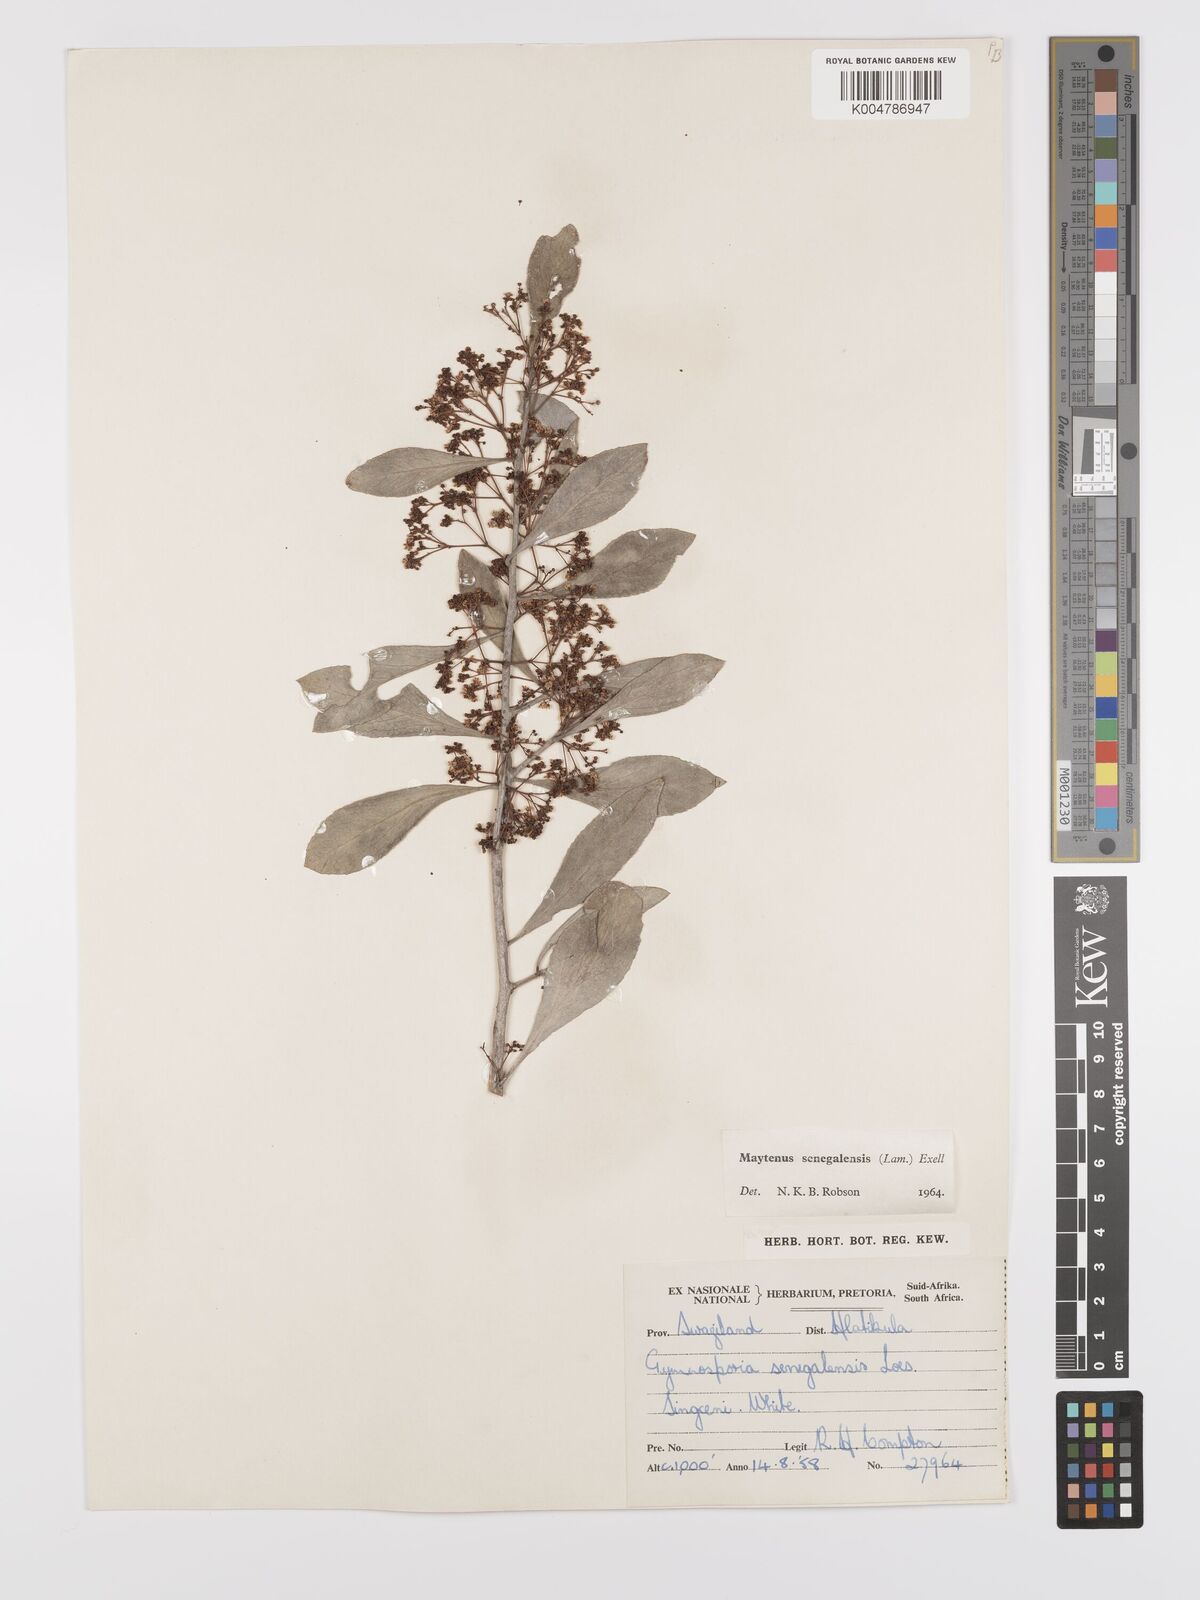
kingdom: Plantae
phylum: Tracheophyta
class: Magnoliopsida
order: Celastrales
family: Celastraceae
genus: Gymnosporia
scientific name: Gymnosporia senegalensis
